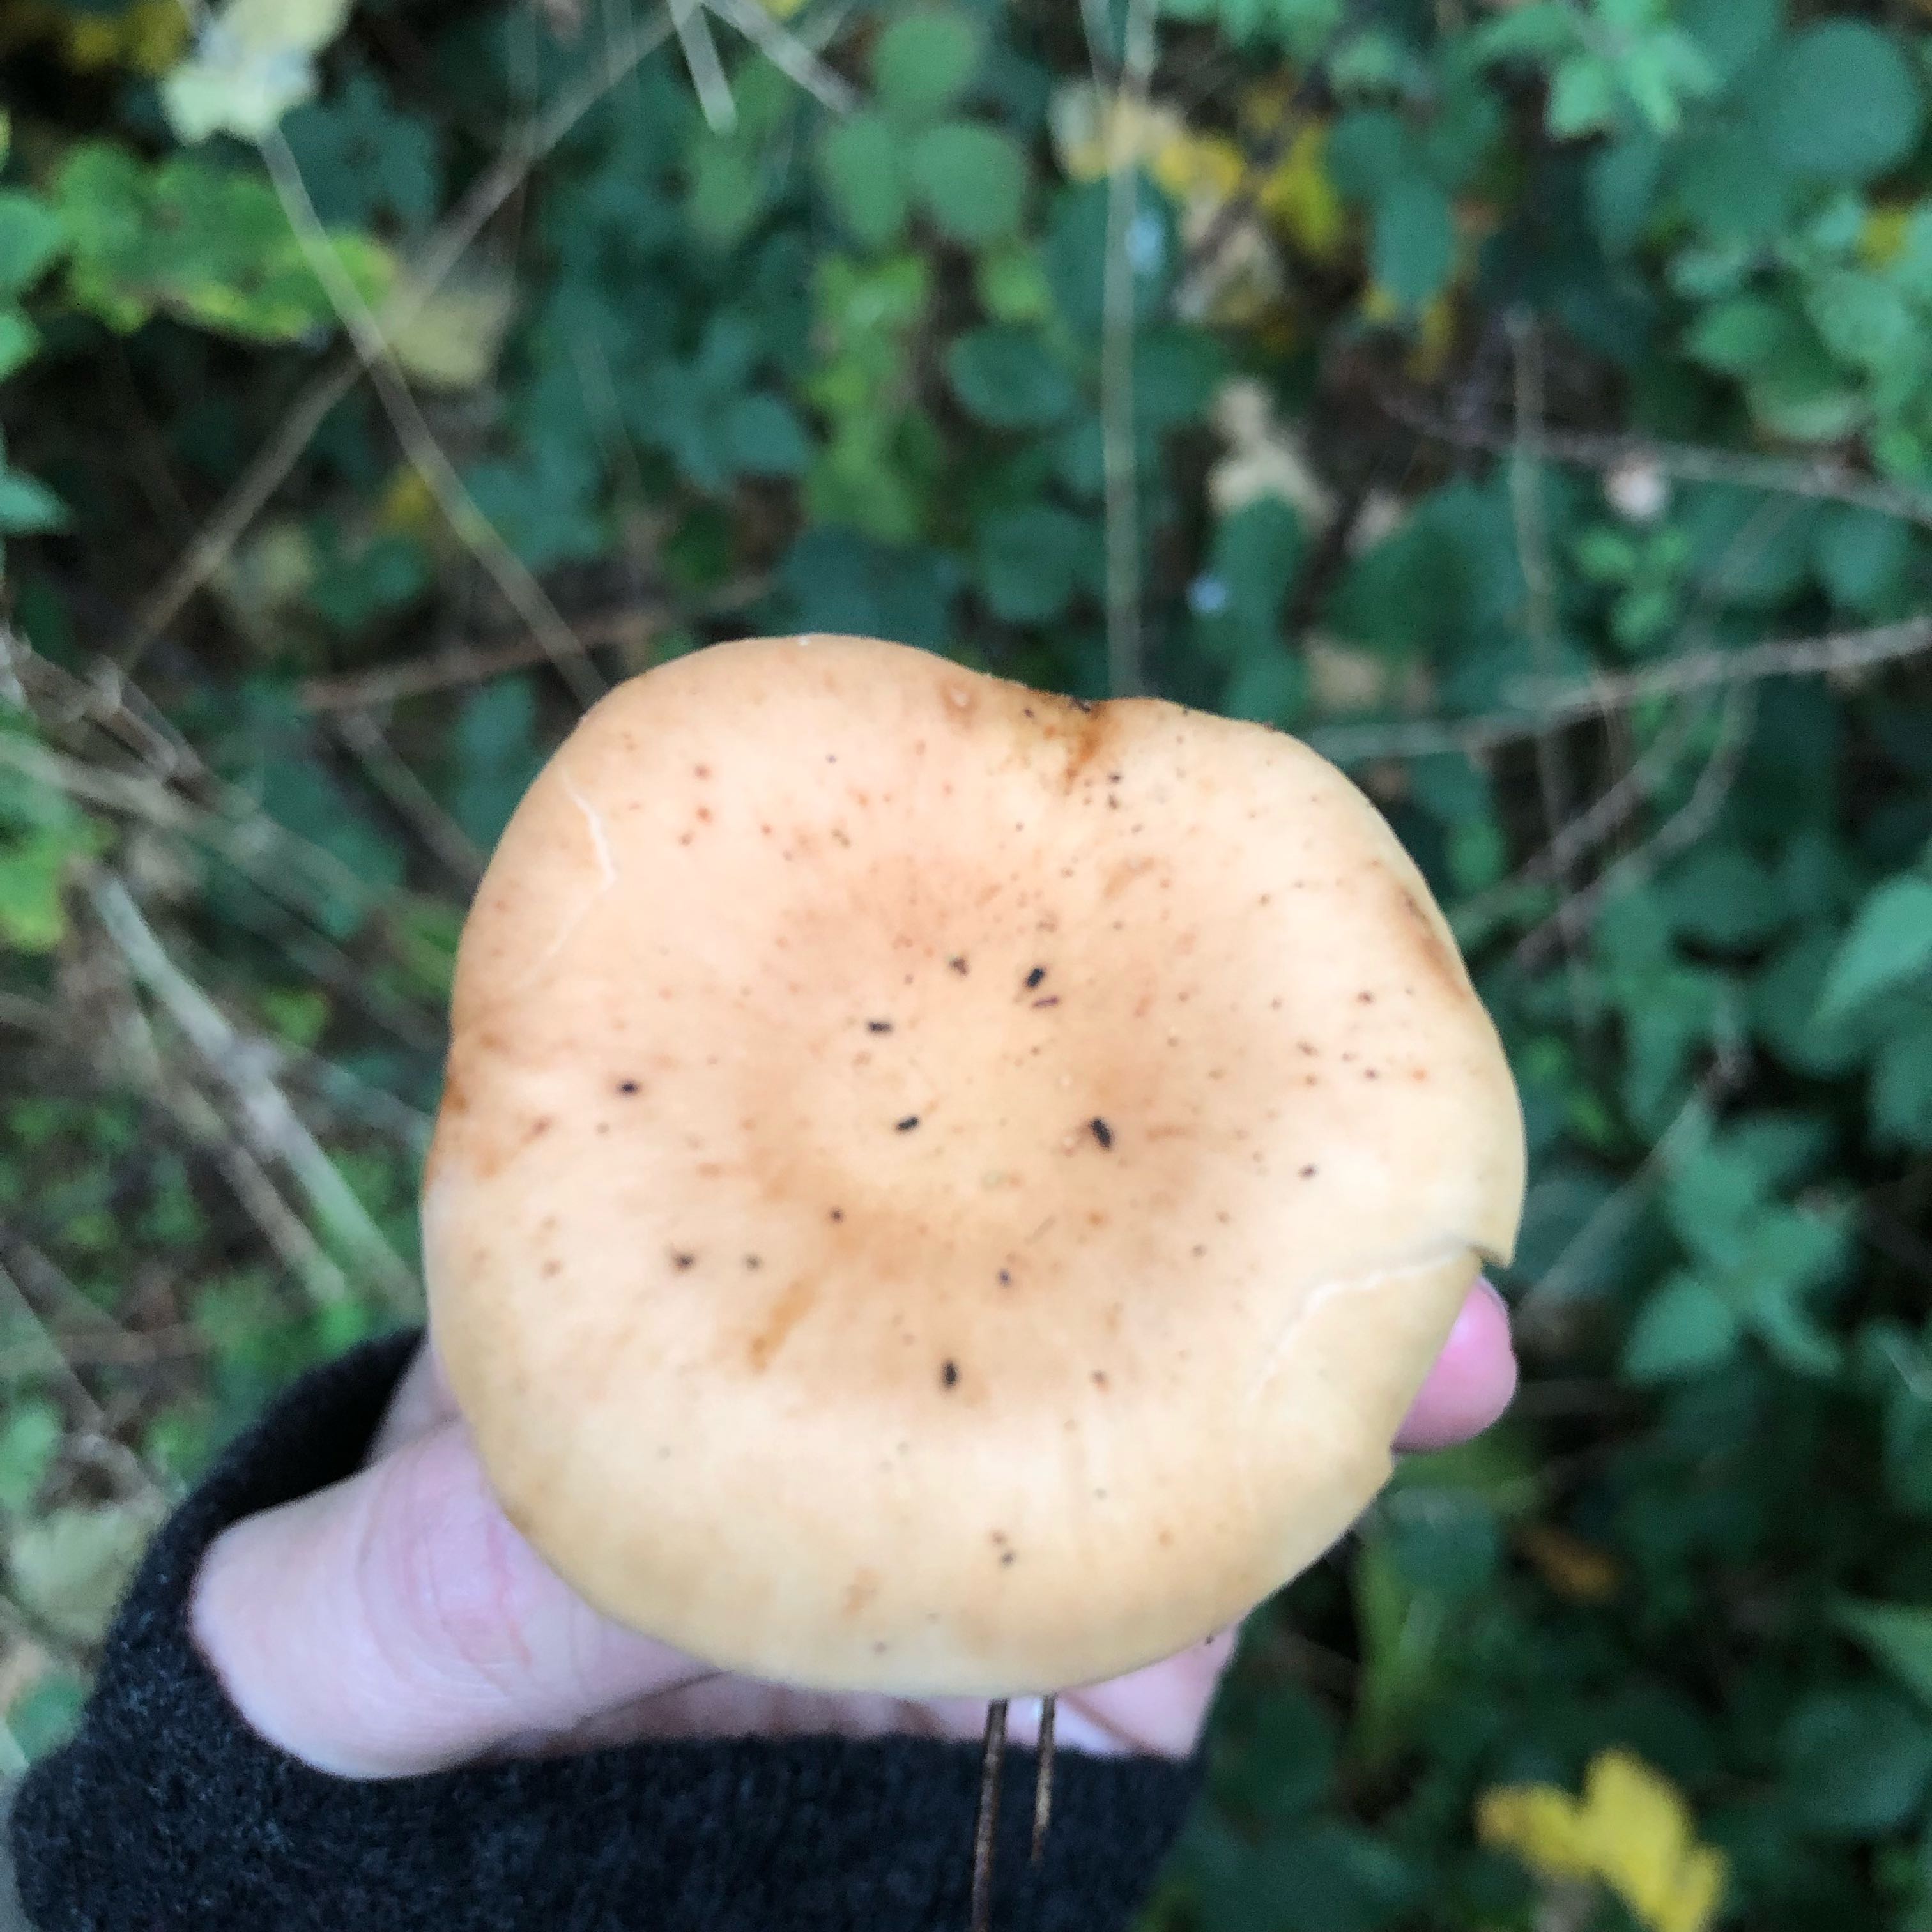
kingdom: Fungi
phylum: Basidiomycota
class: Agaricomycetes
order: Agaricales
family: Tricholomataceae
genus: Paralepista
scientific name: Paralepista flaccida
